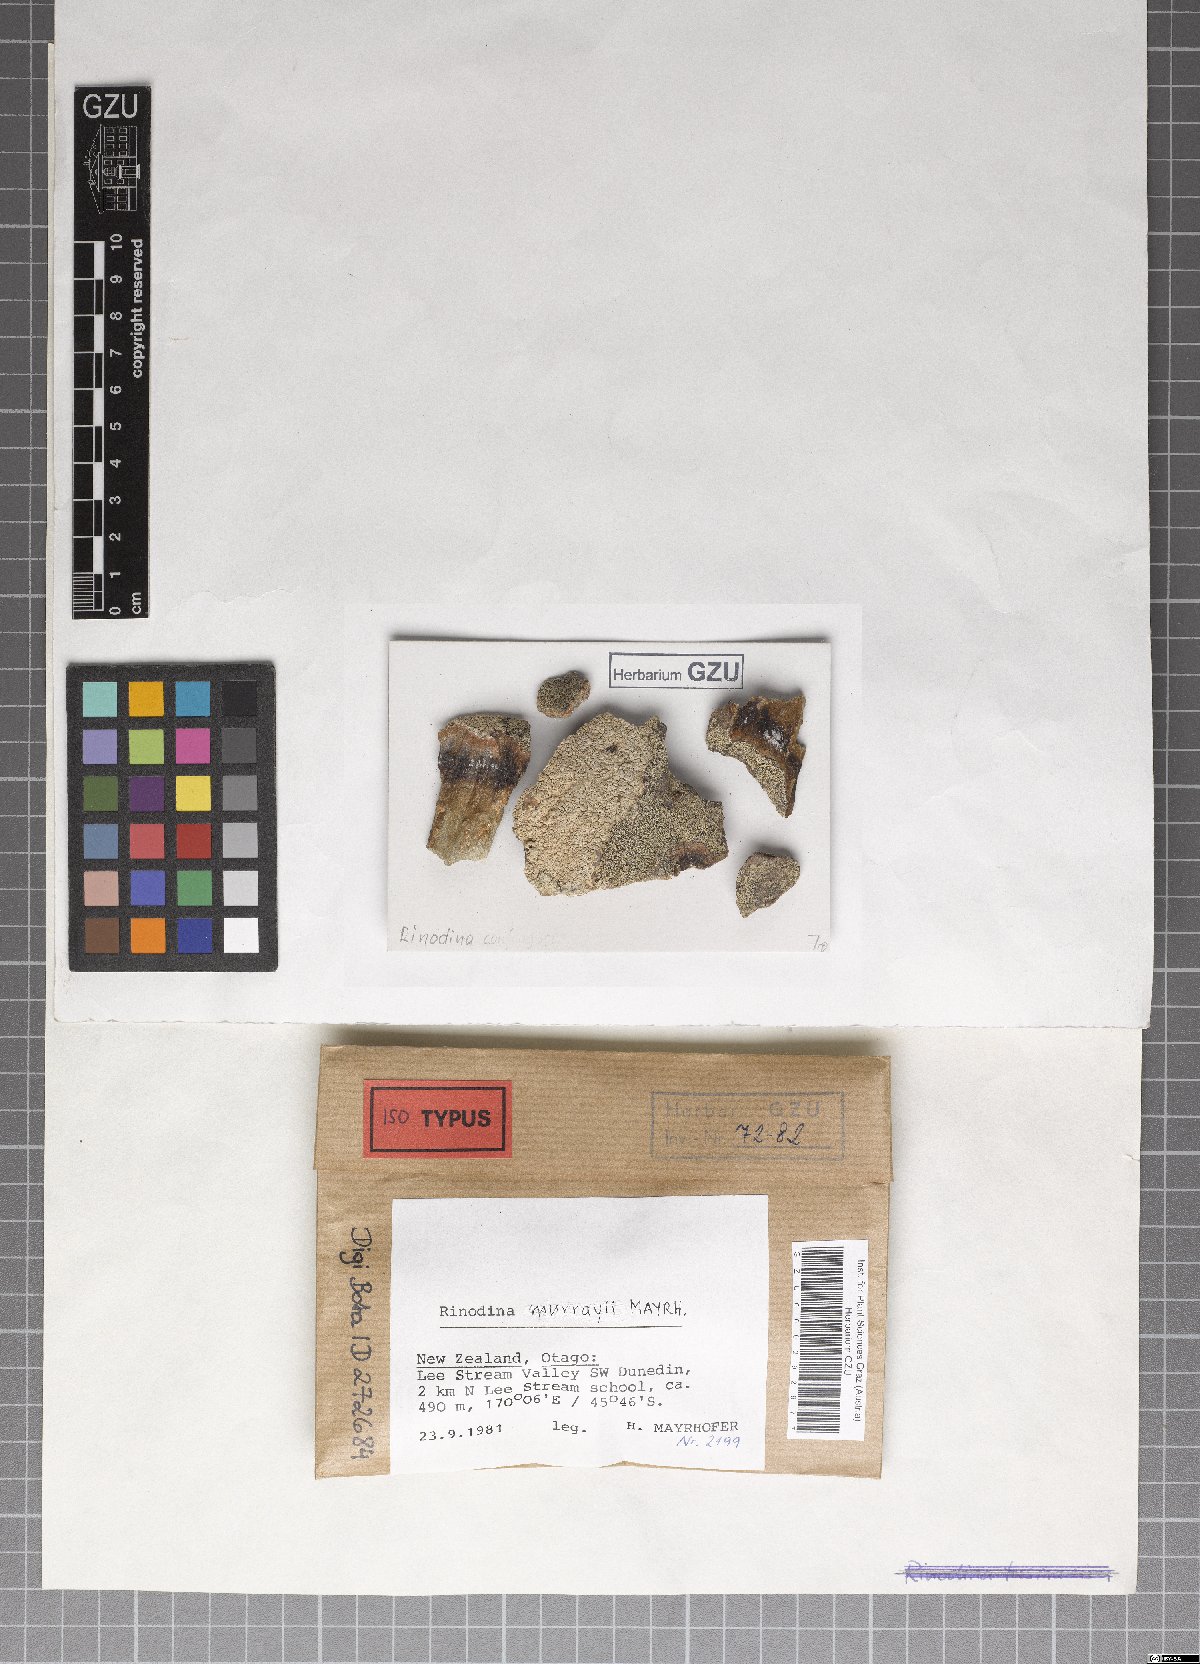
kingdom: Fungi
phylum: Ascomycota
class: Lecanoromycetes
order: Caliciales
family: Physciaceae
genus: Rinodina
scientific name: Rinodina murrayi
